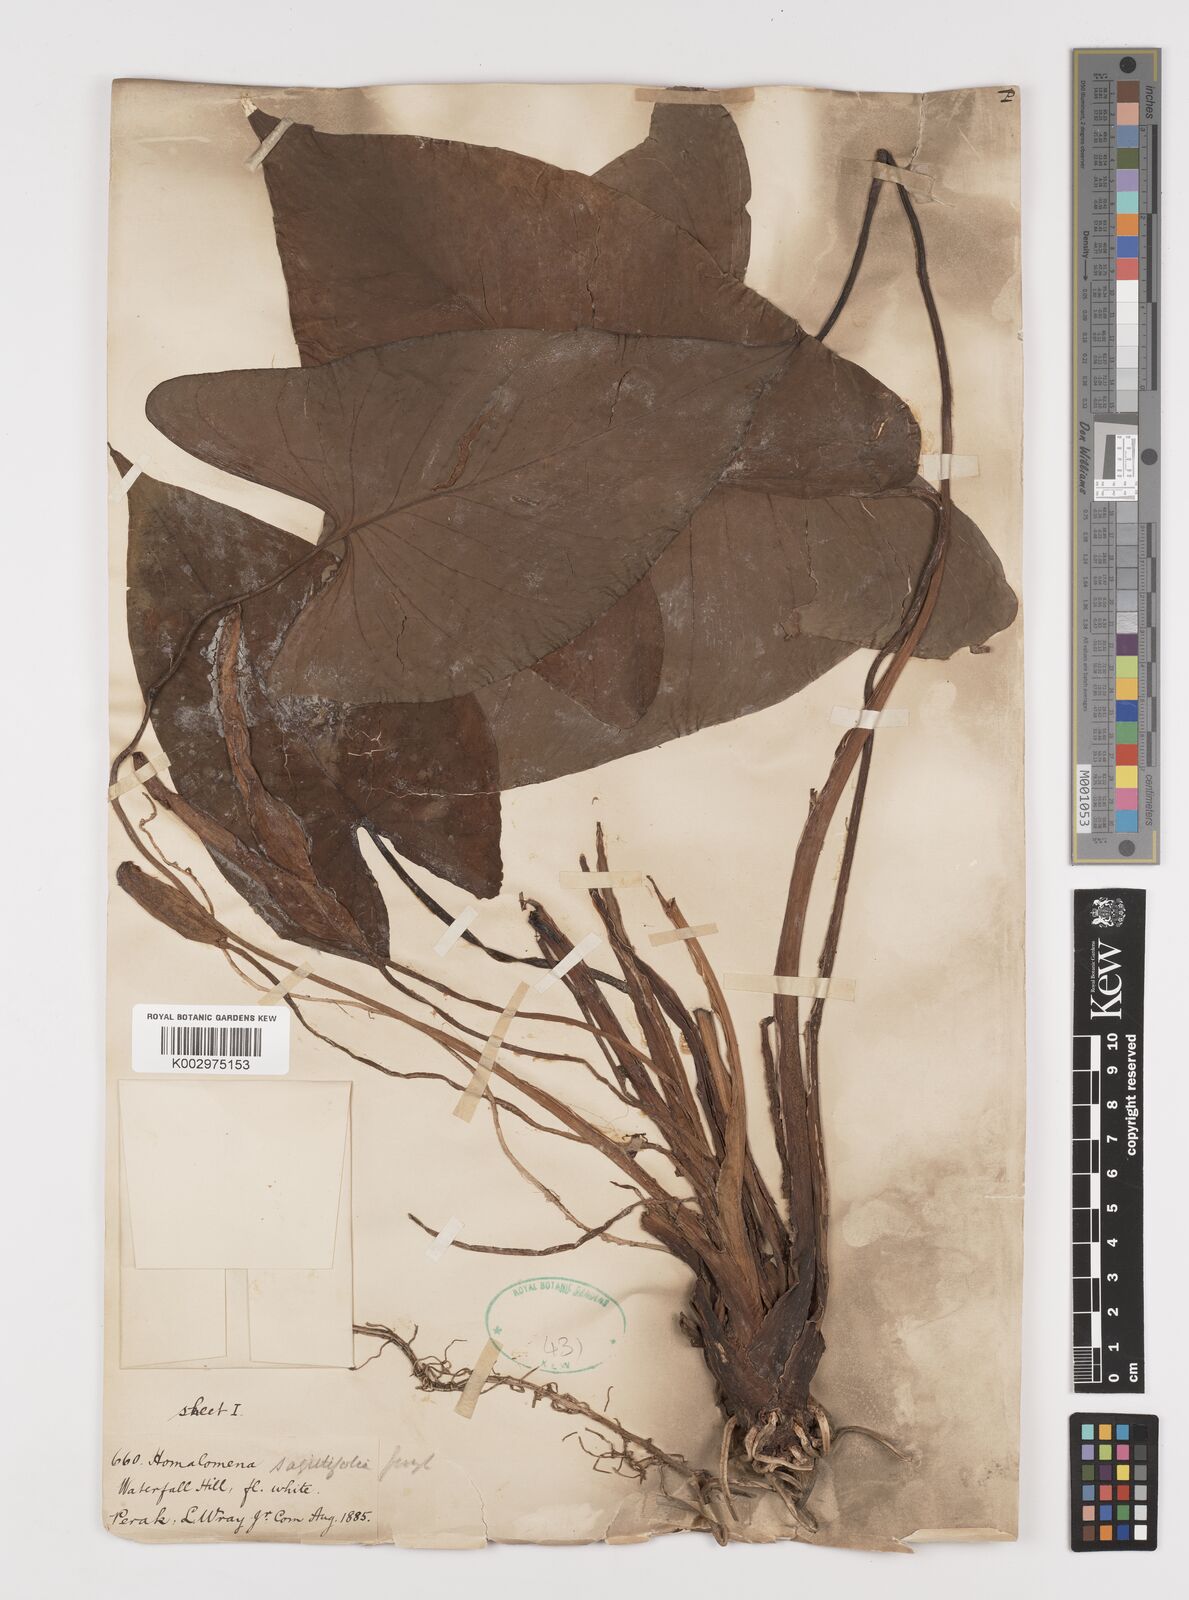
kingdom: Plantae
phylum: Tracheophyta
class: Liliopsida
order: Alismatales
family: Araceae
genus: Homalomena
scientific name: Homalomena rostrata
